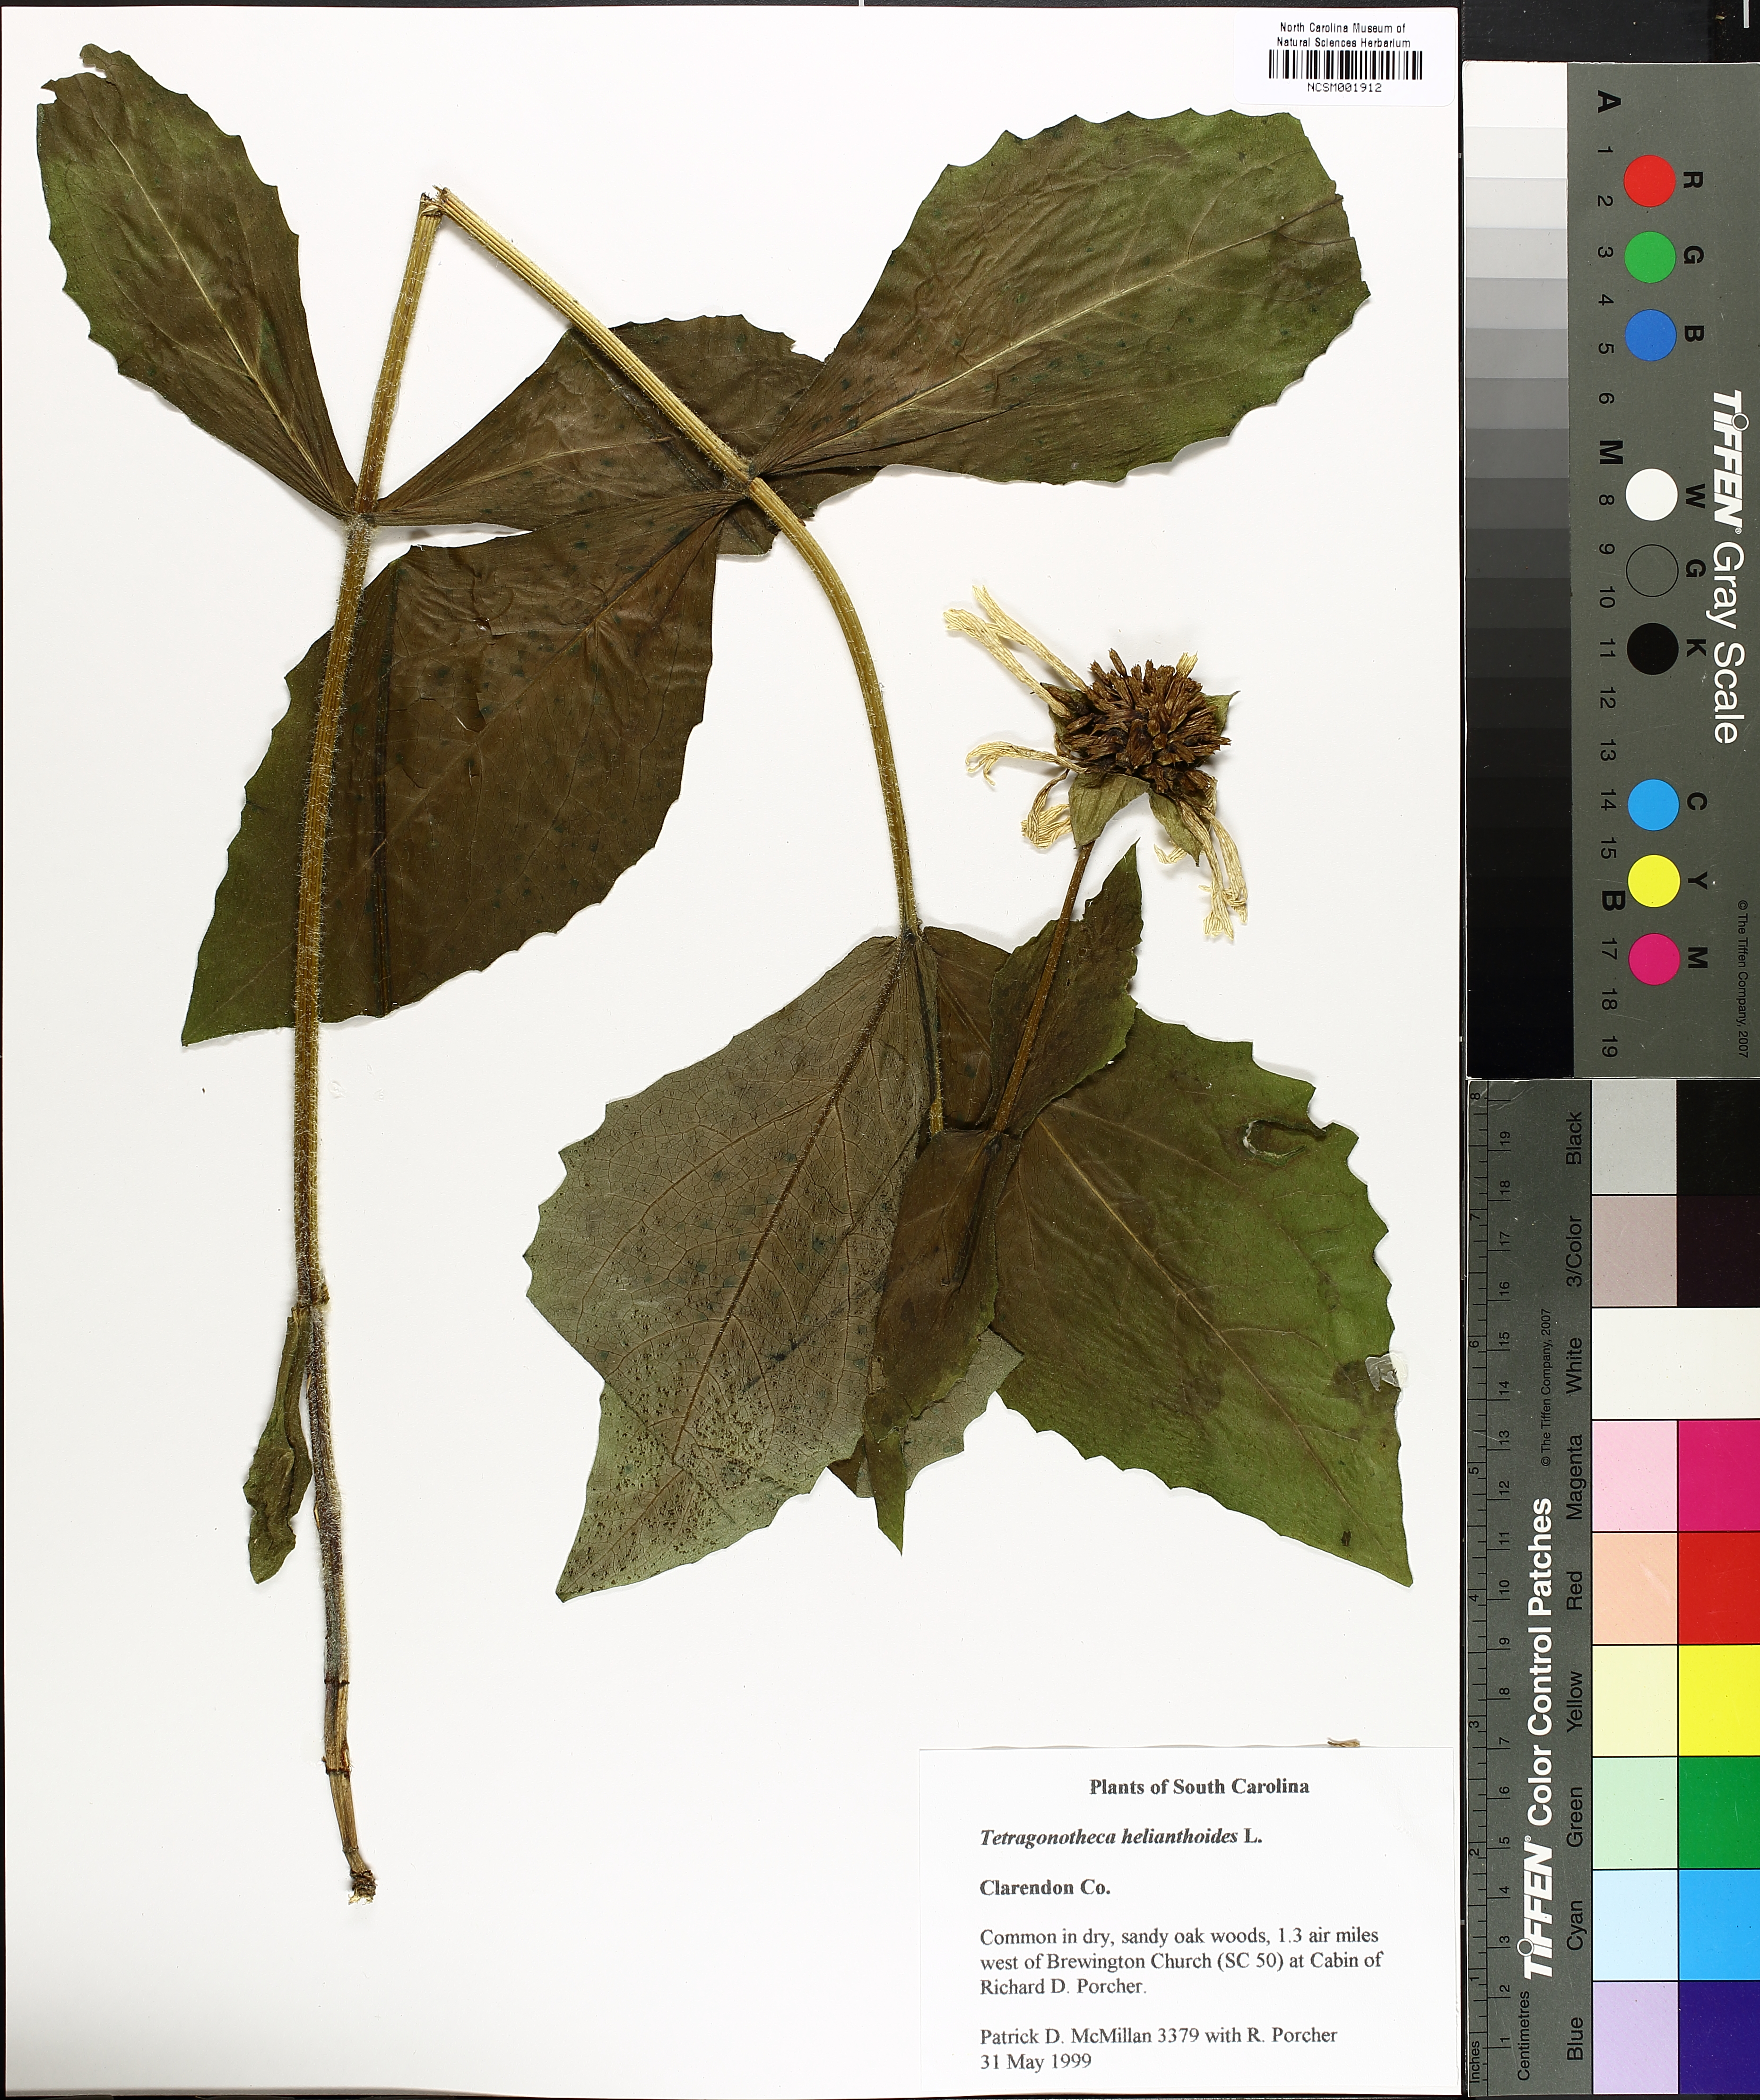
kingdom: Plantae
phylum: Tracheophyta
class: Magnoliopsida
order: Asterales
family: Asteraceae
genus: Tetragonotheca
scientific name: Tetragonotheca helianthoides
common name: Pineland-ginseng
